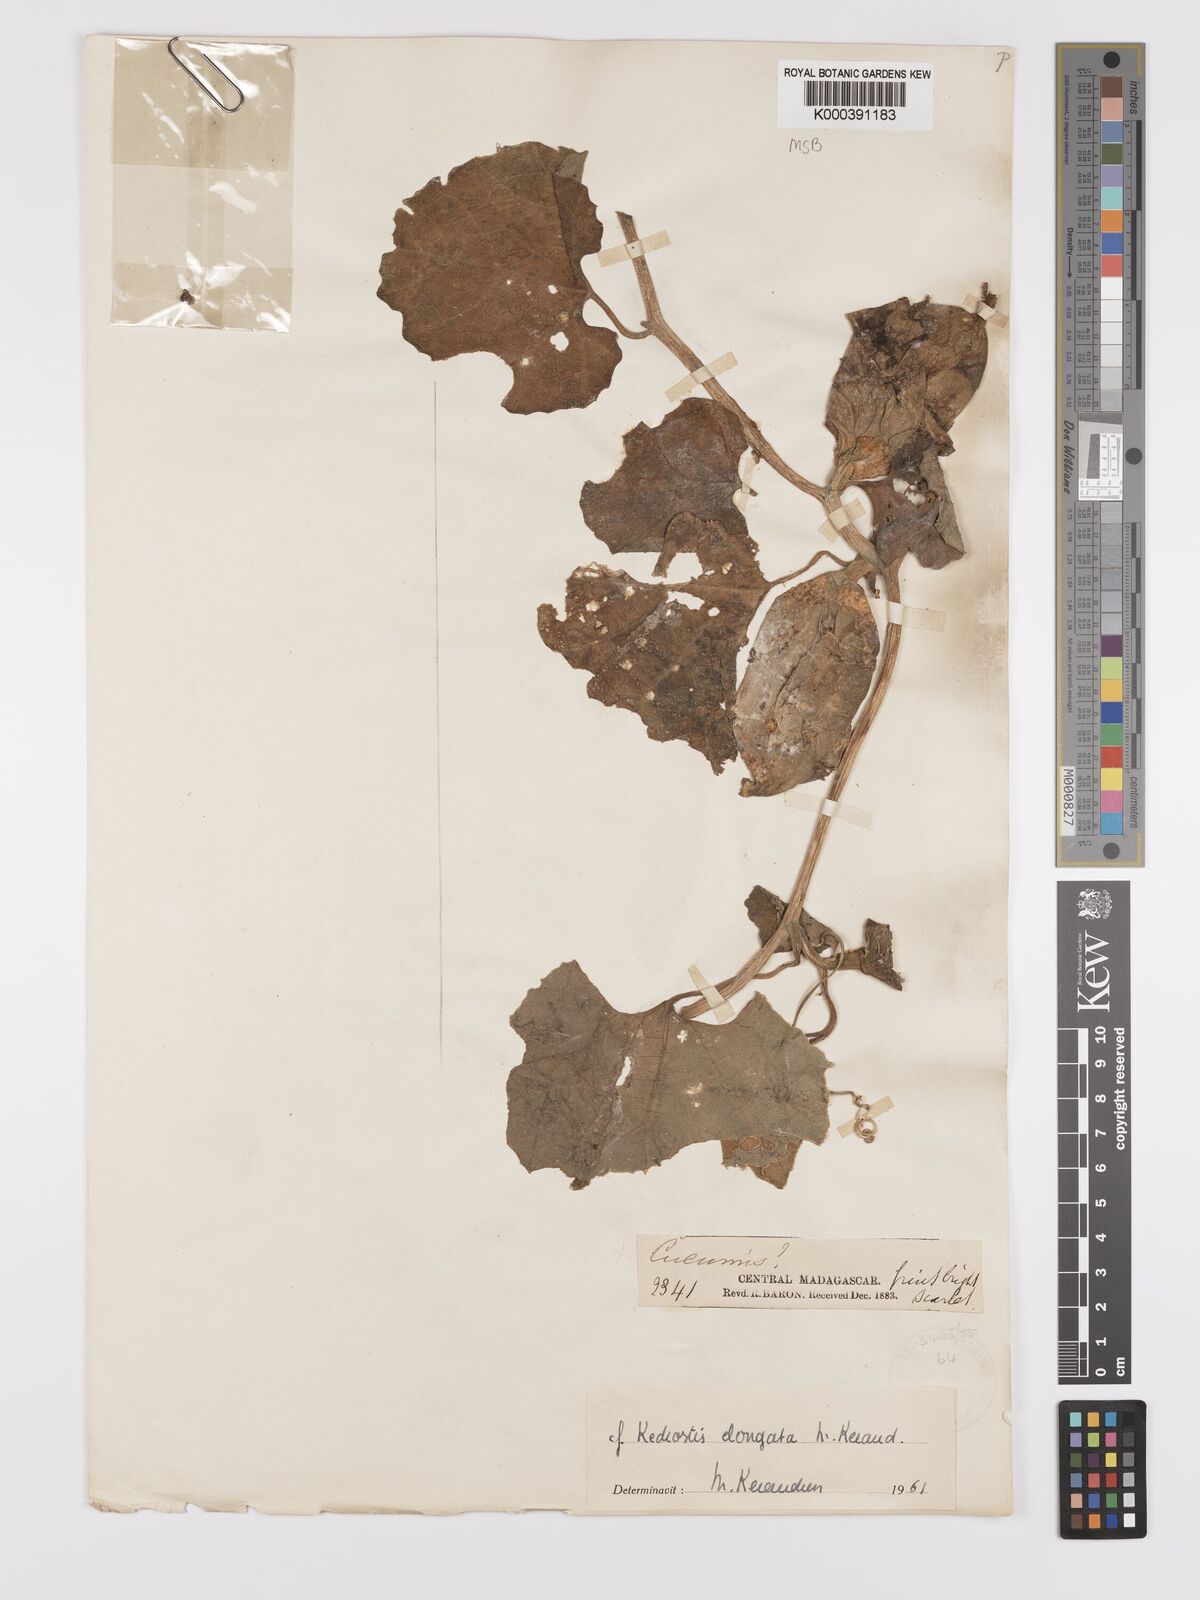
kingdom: Plantae
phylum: Tracheophyta
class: Magnoliopsida
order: Cucurbitales
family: Cucurbitaceae
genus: Kedrostis
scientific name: Kedrostis elongata
